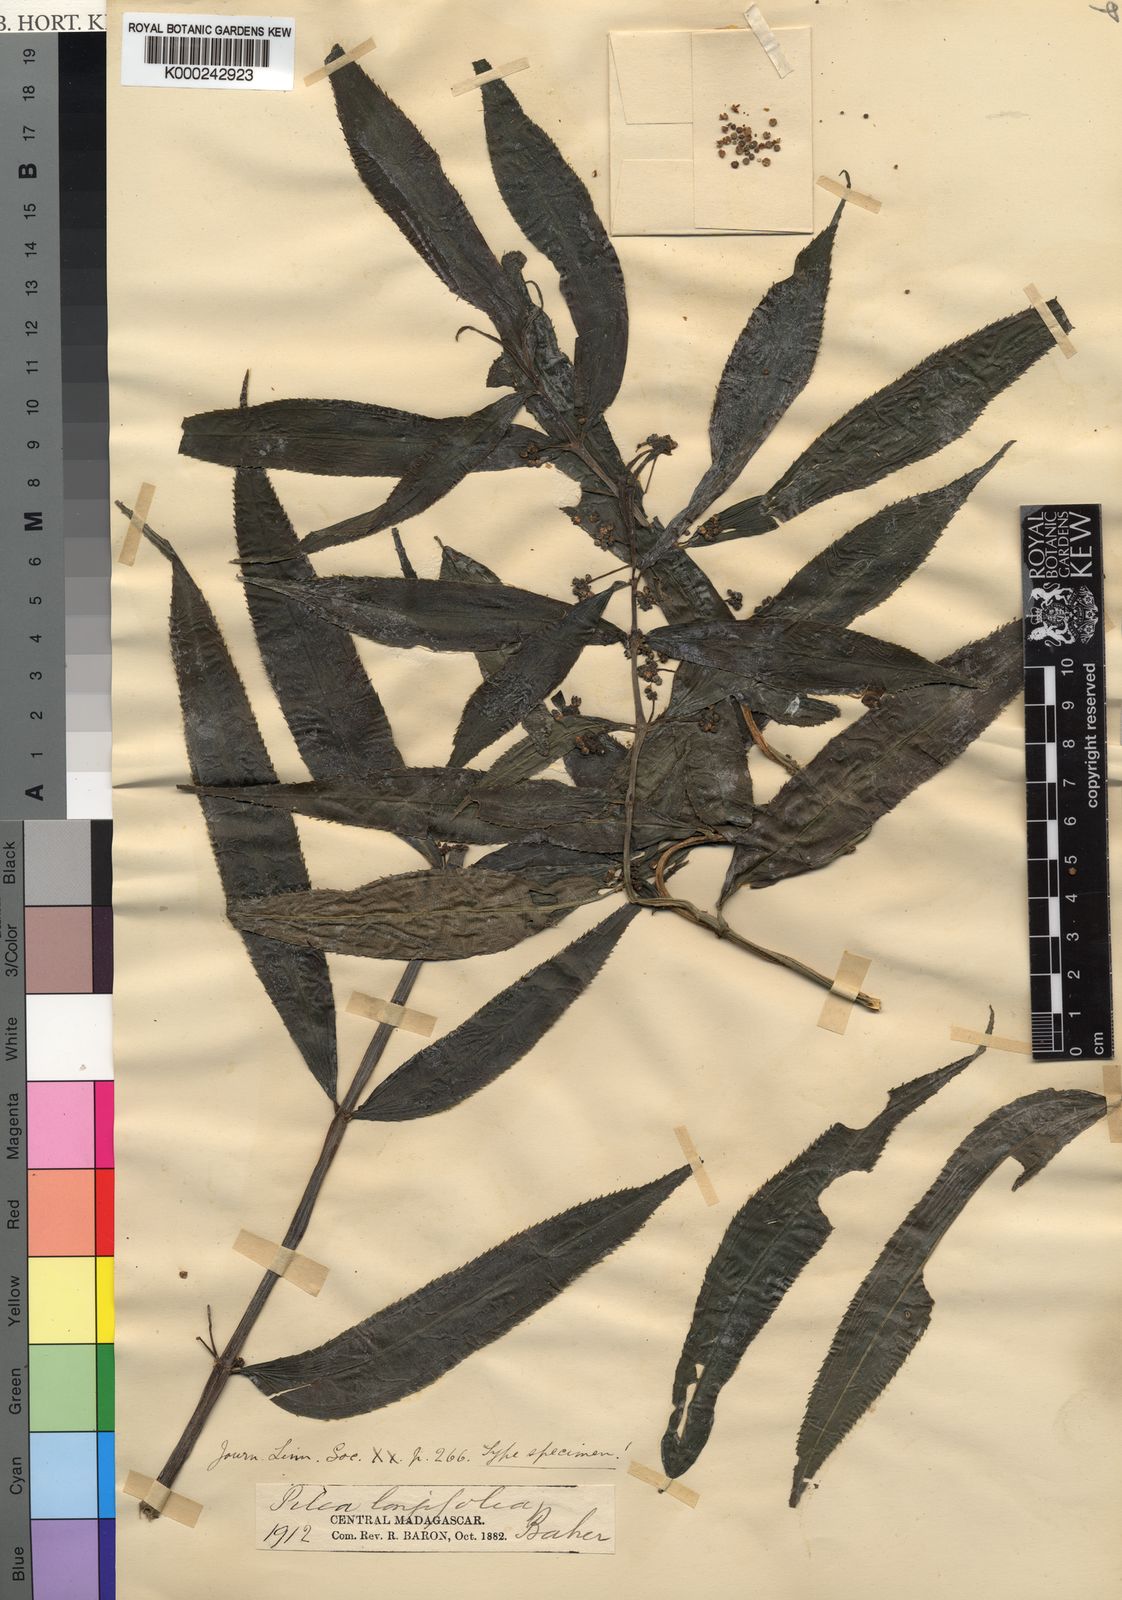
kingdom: Plantae
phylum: Tracheophyta
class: Magnoliopsida
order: Rosales
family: Urticaceae
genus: Pilea
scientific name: Pilea longifolia
